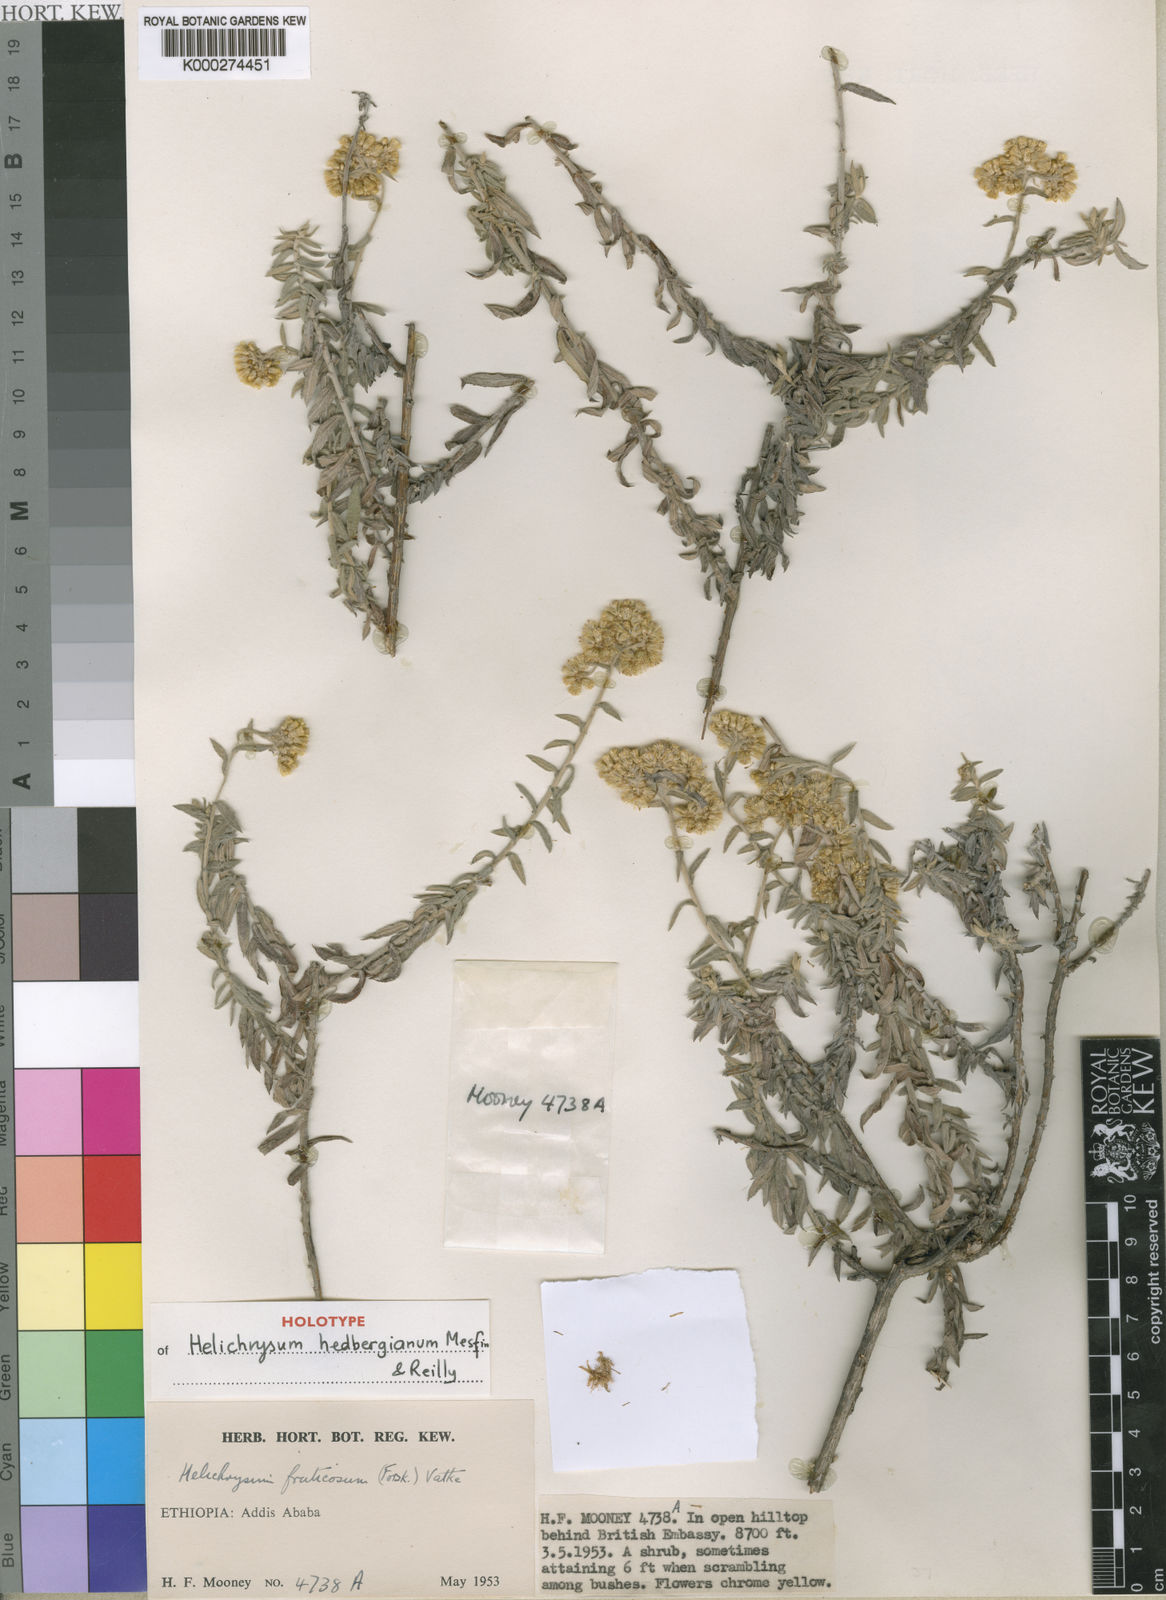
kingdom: Plantae
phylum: Tracheophyta
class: Magnoliopsida
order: Asterales
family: Asteraceae
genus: Helichrysum
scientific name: Helichrysum hedbergianum
